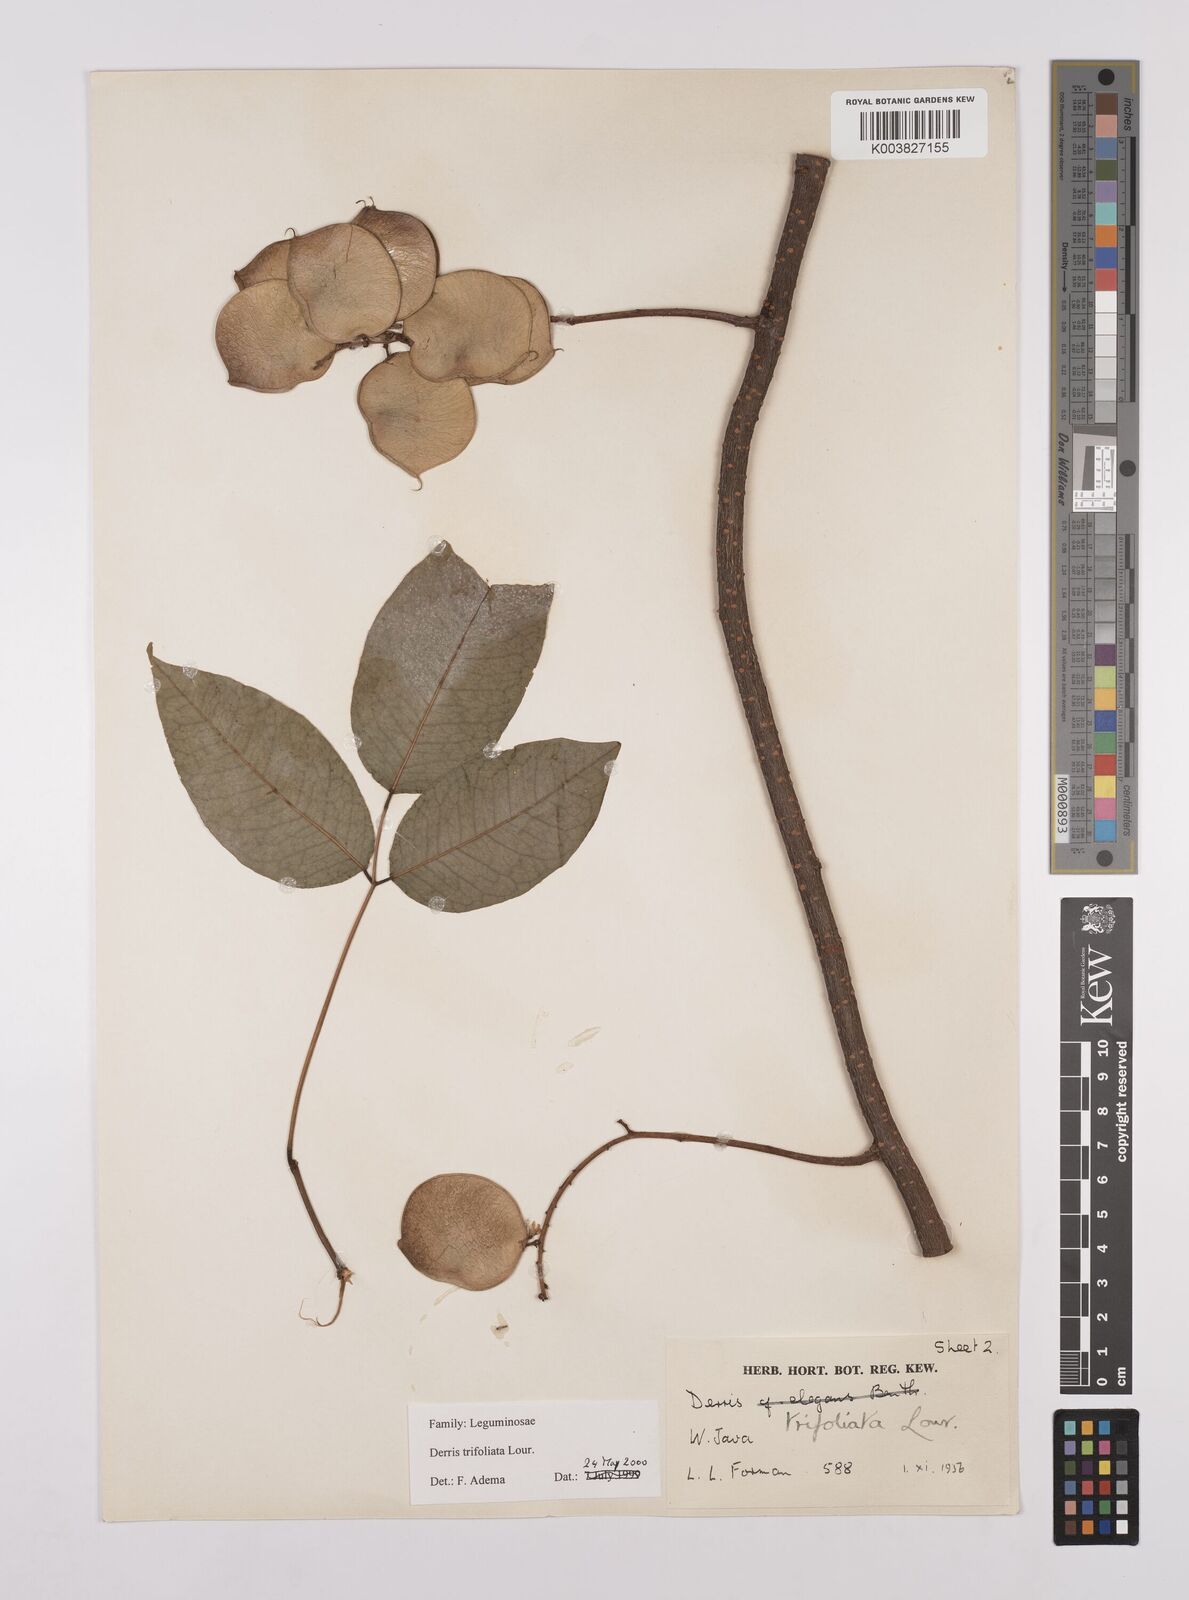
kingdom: Plantae
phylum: Tracheophyta
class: Magnoliopsida
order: Fabales
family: Fabaceae
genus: Derris
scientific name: Derris trifoliata
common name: Three-leaf derris
